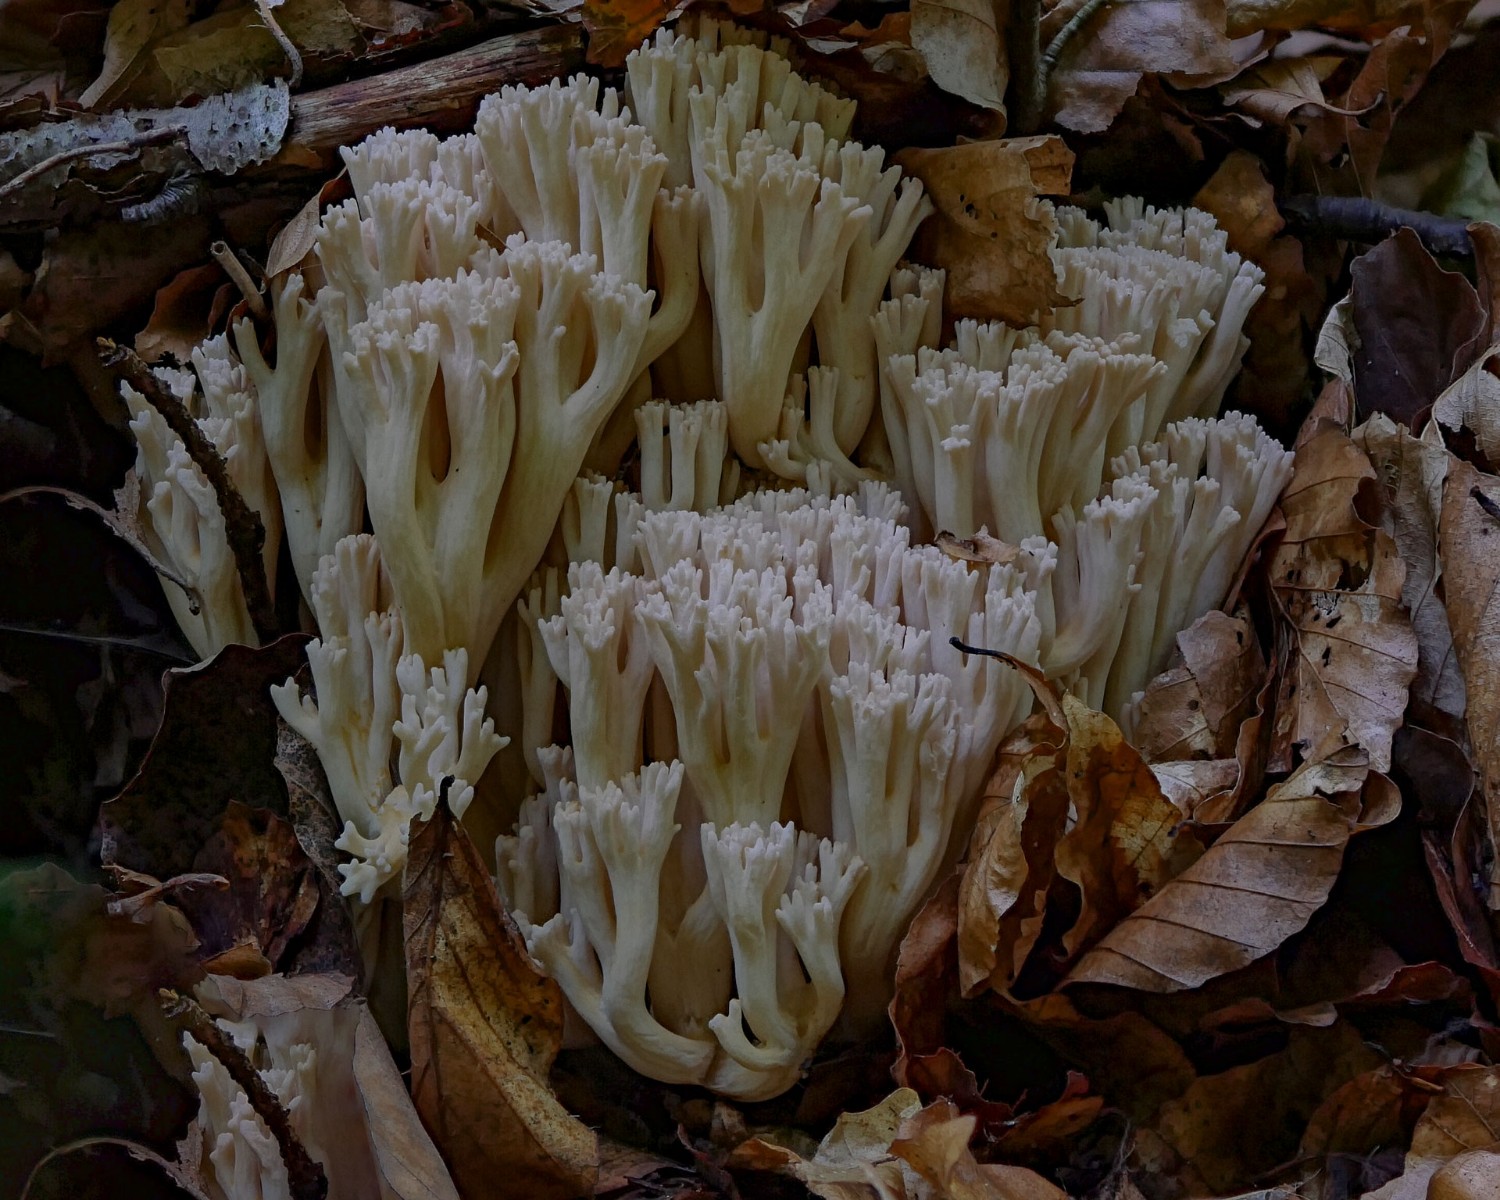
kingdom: Fungi
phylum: Basidiomycota
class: Agaricomycetes
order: Gomphales
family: Gomphaceae
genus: Ramaria
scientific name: Ramaria
